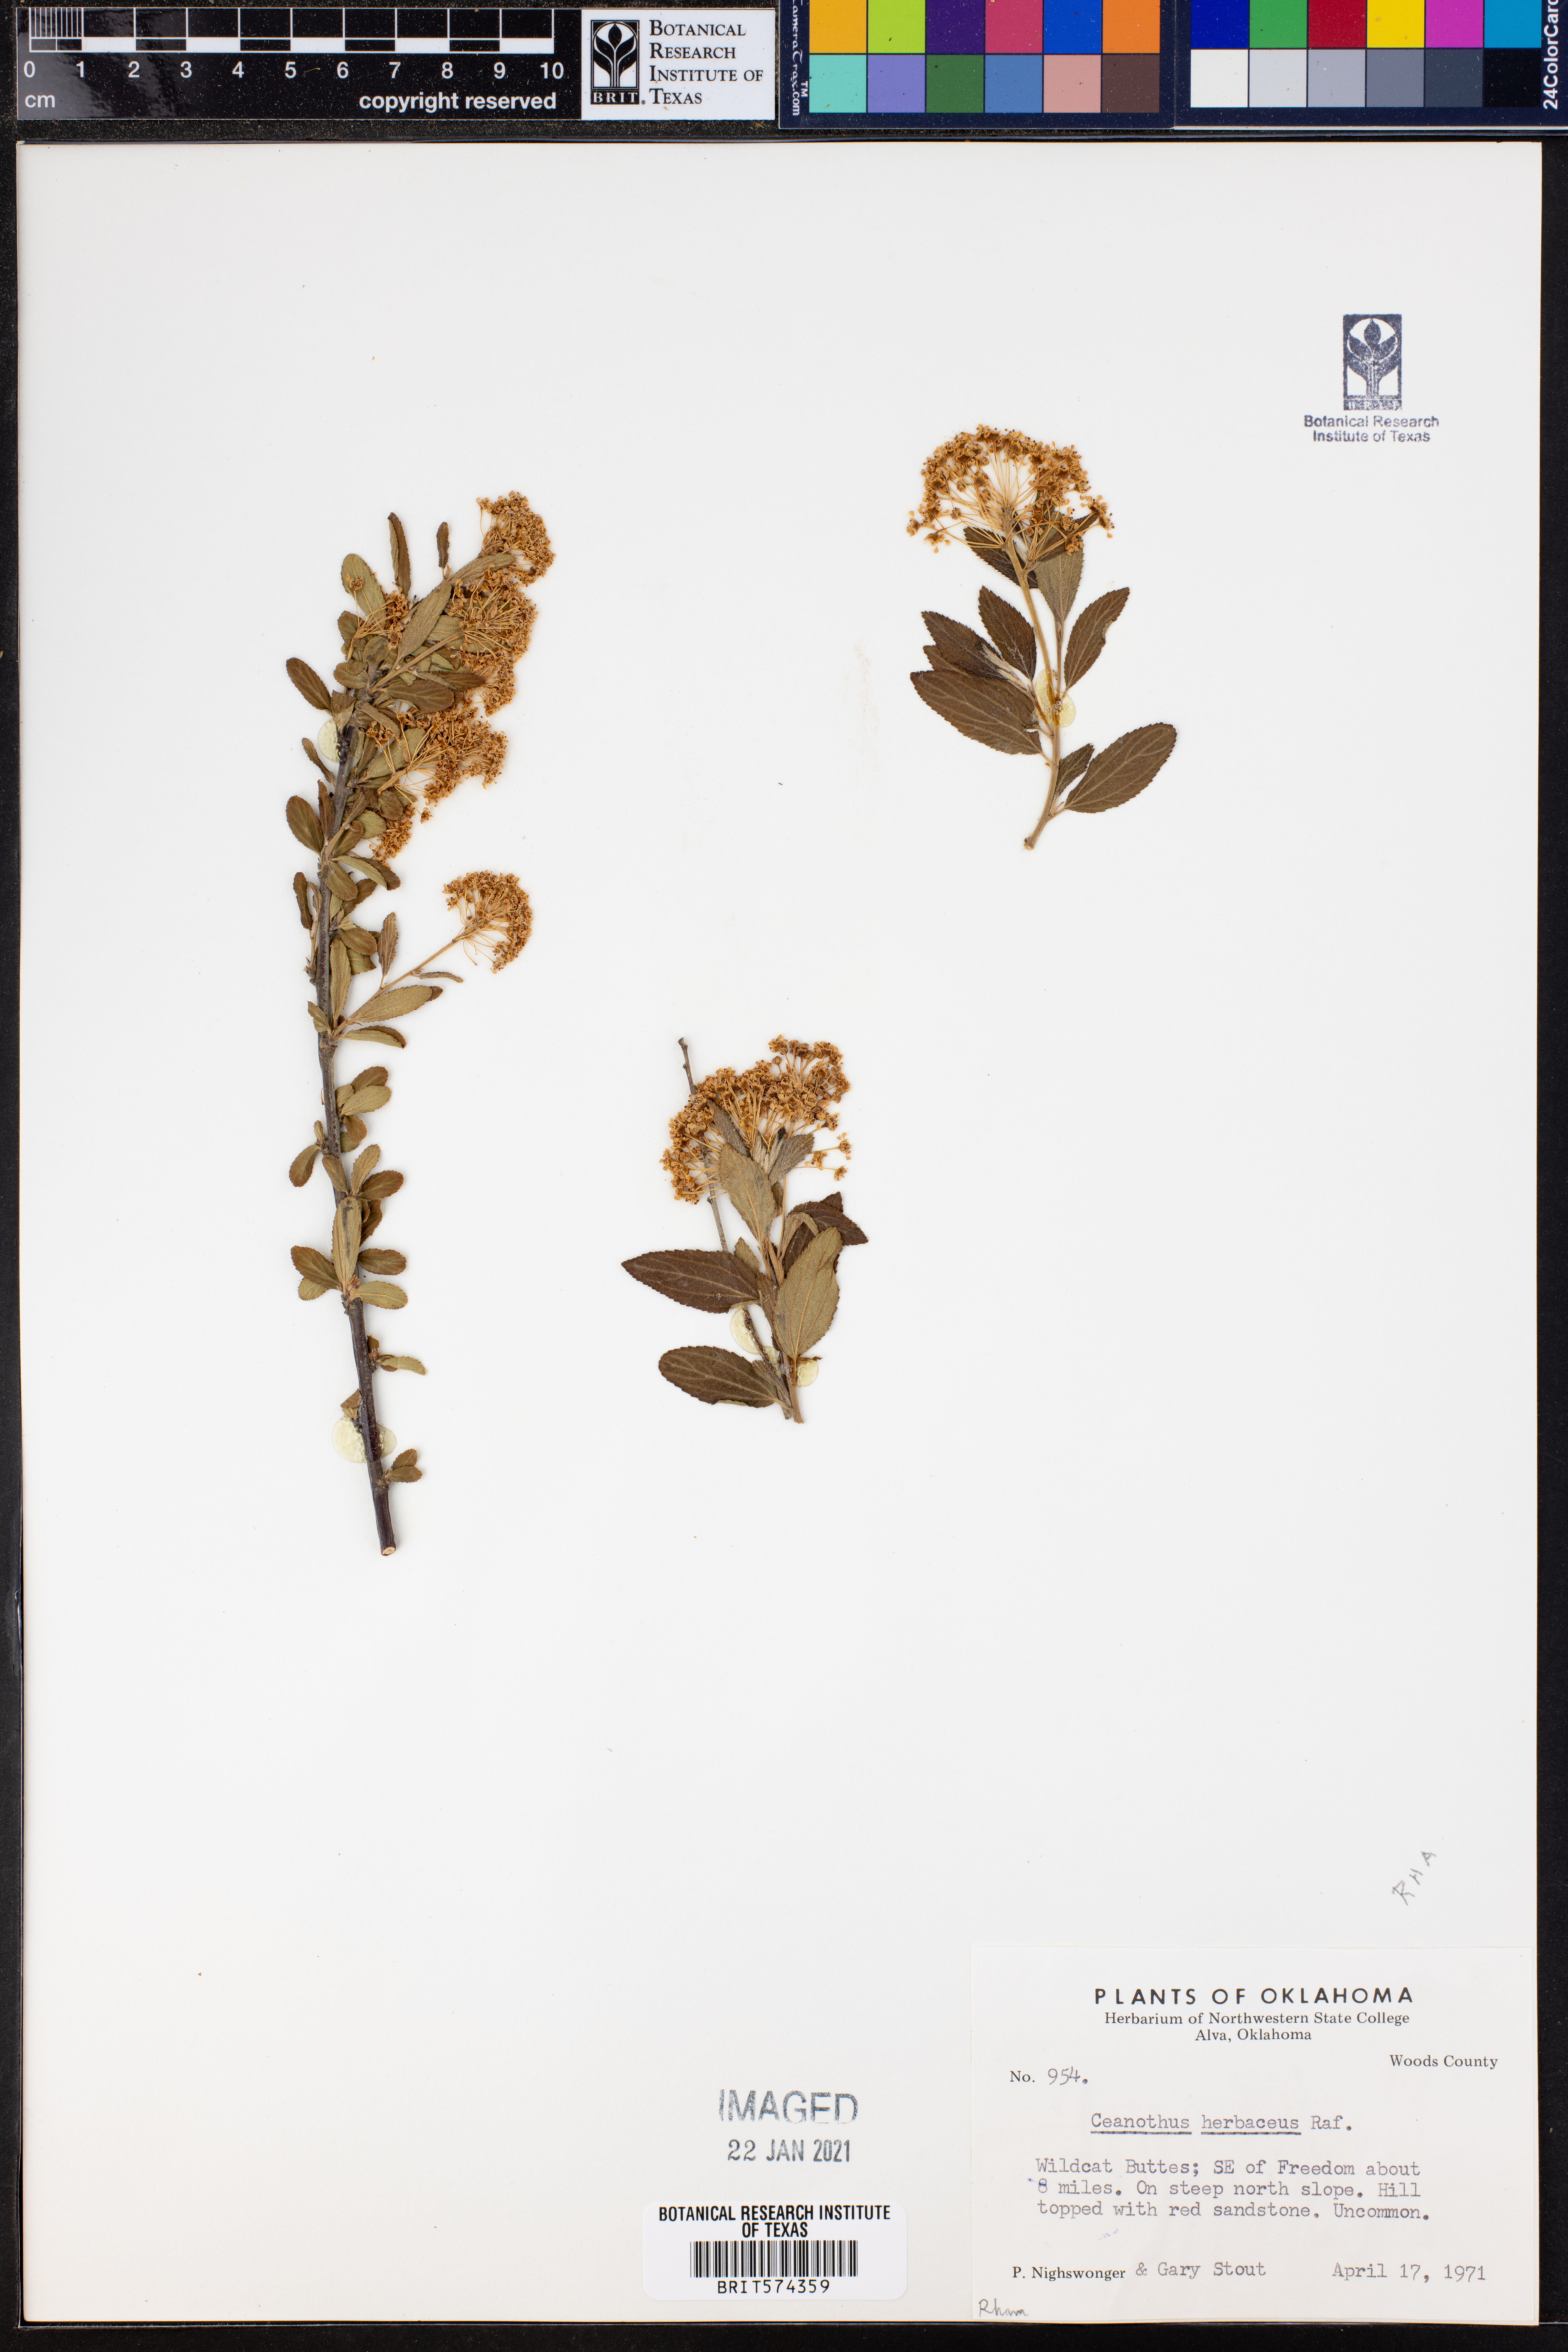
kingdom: Plantae
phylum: Tracheophyta
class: Magnoliopsida
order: Rosales
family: Rhamnaceae
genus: Ceanothus
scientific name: Ceanothus herbaceus
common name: Inland ceanothus
